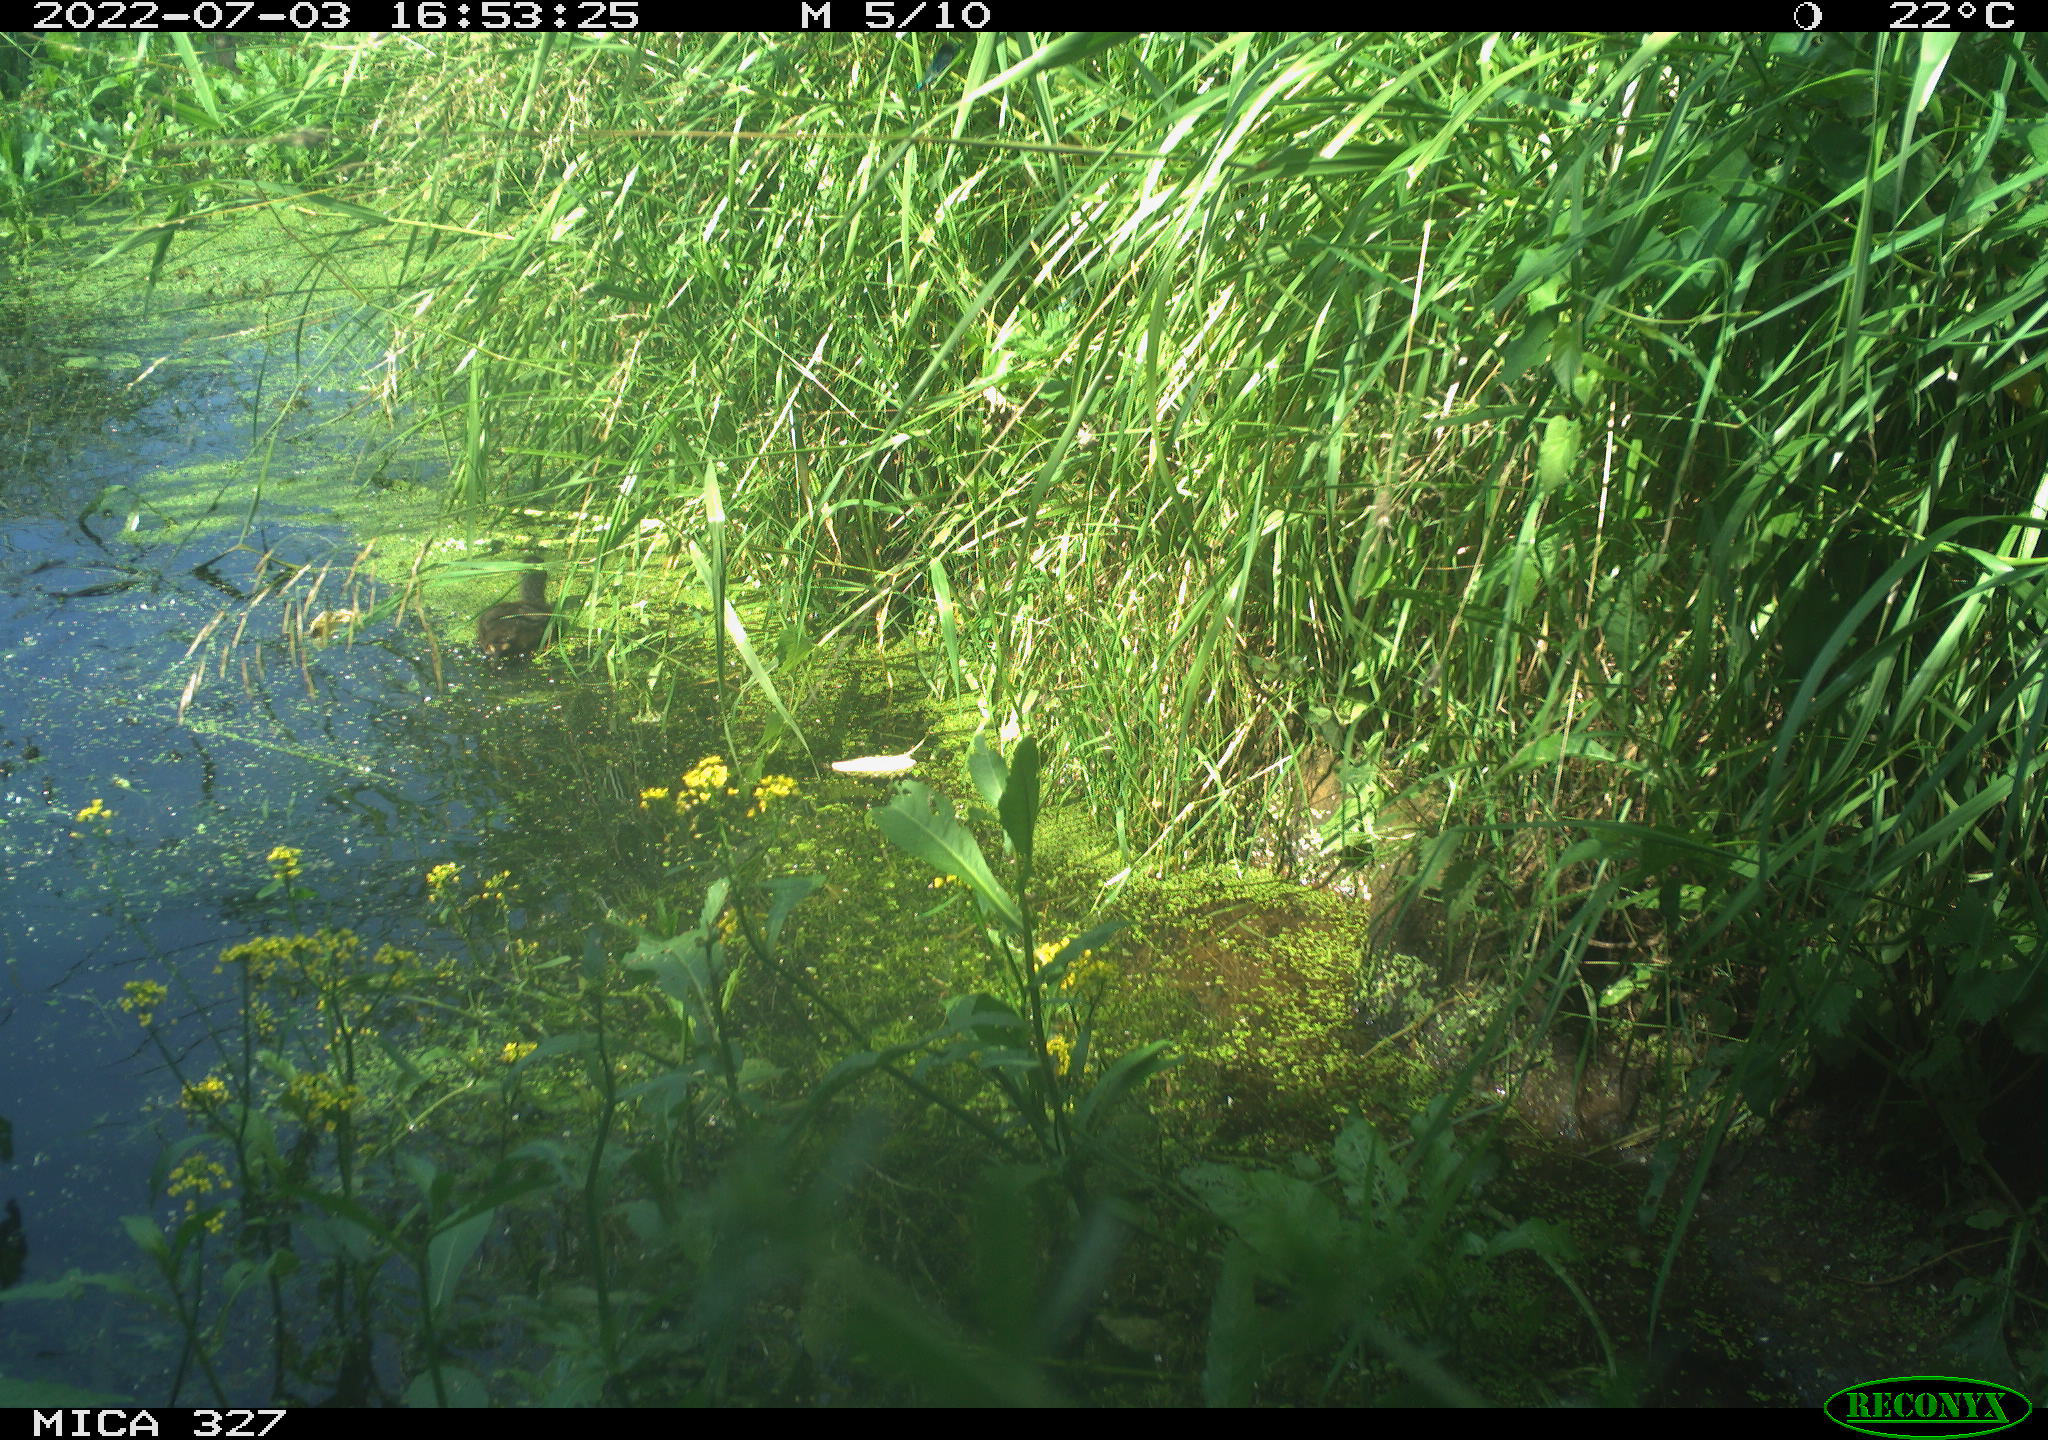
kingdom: Animalia
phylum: Chordata
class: Aves
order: Gruiformes
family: Rallidae
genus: Gallinula
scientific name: Gallinula chloropus
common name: Common moorhen
